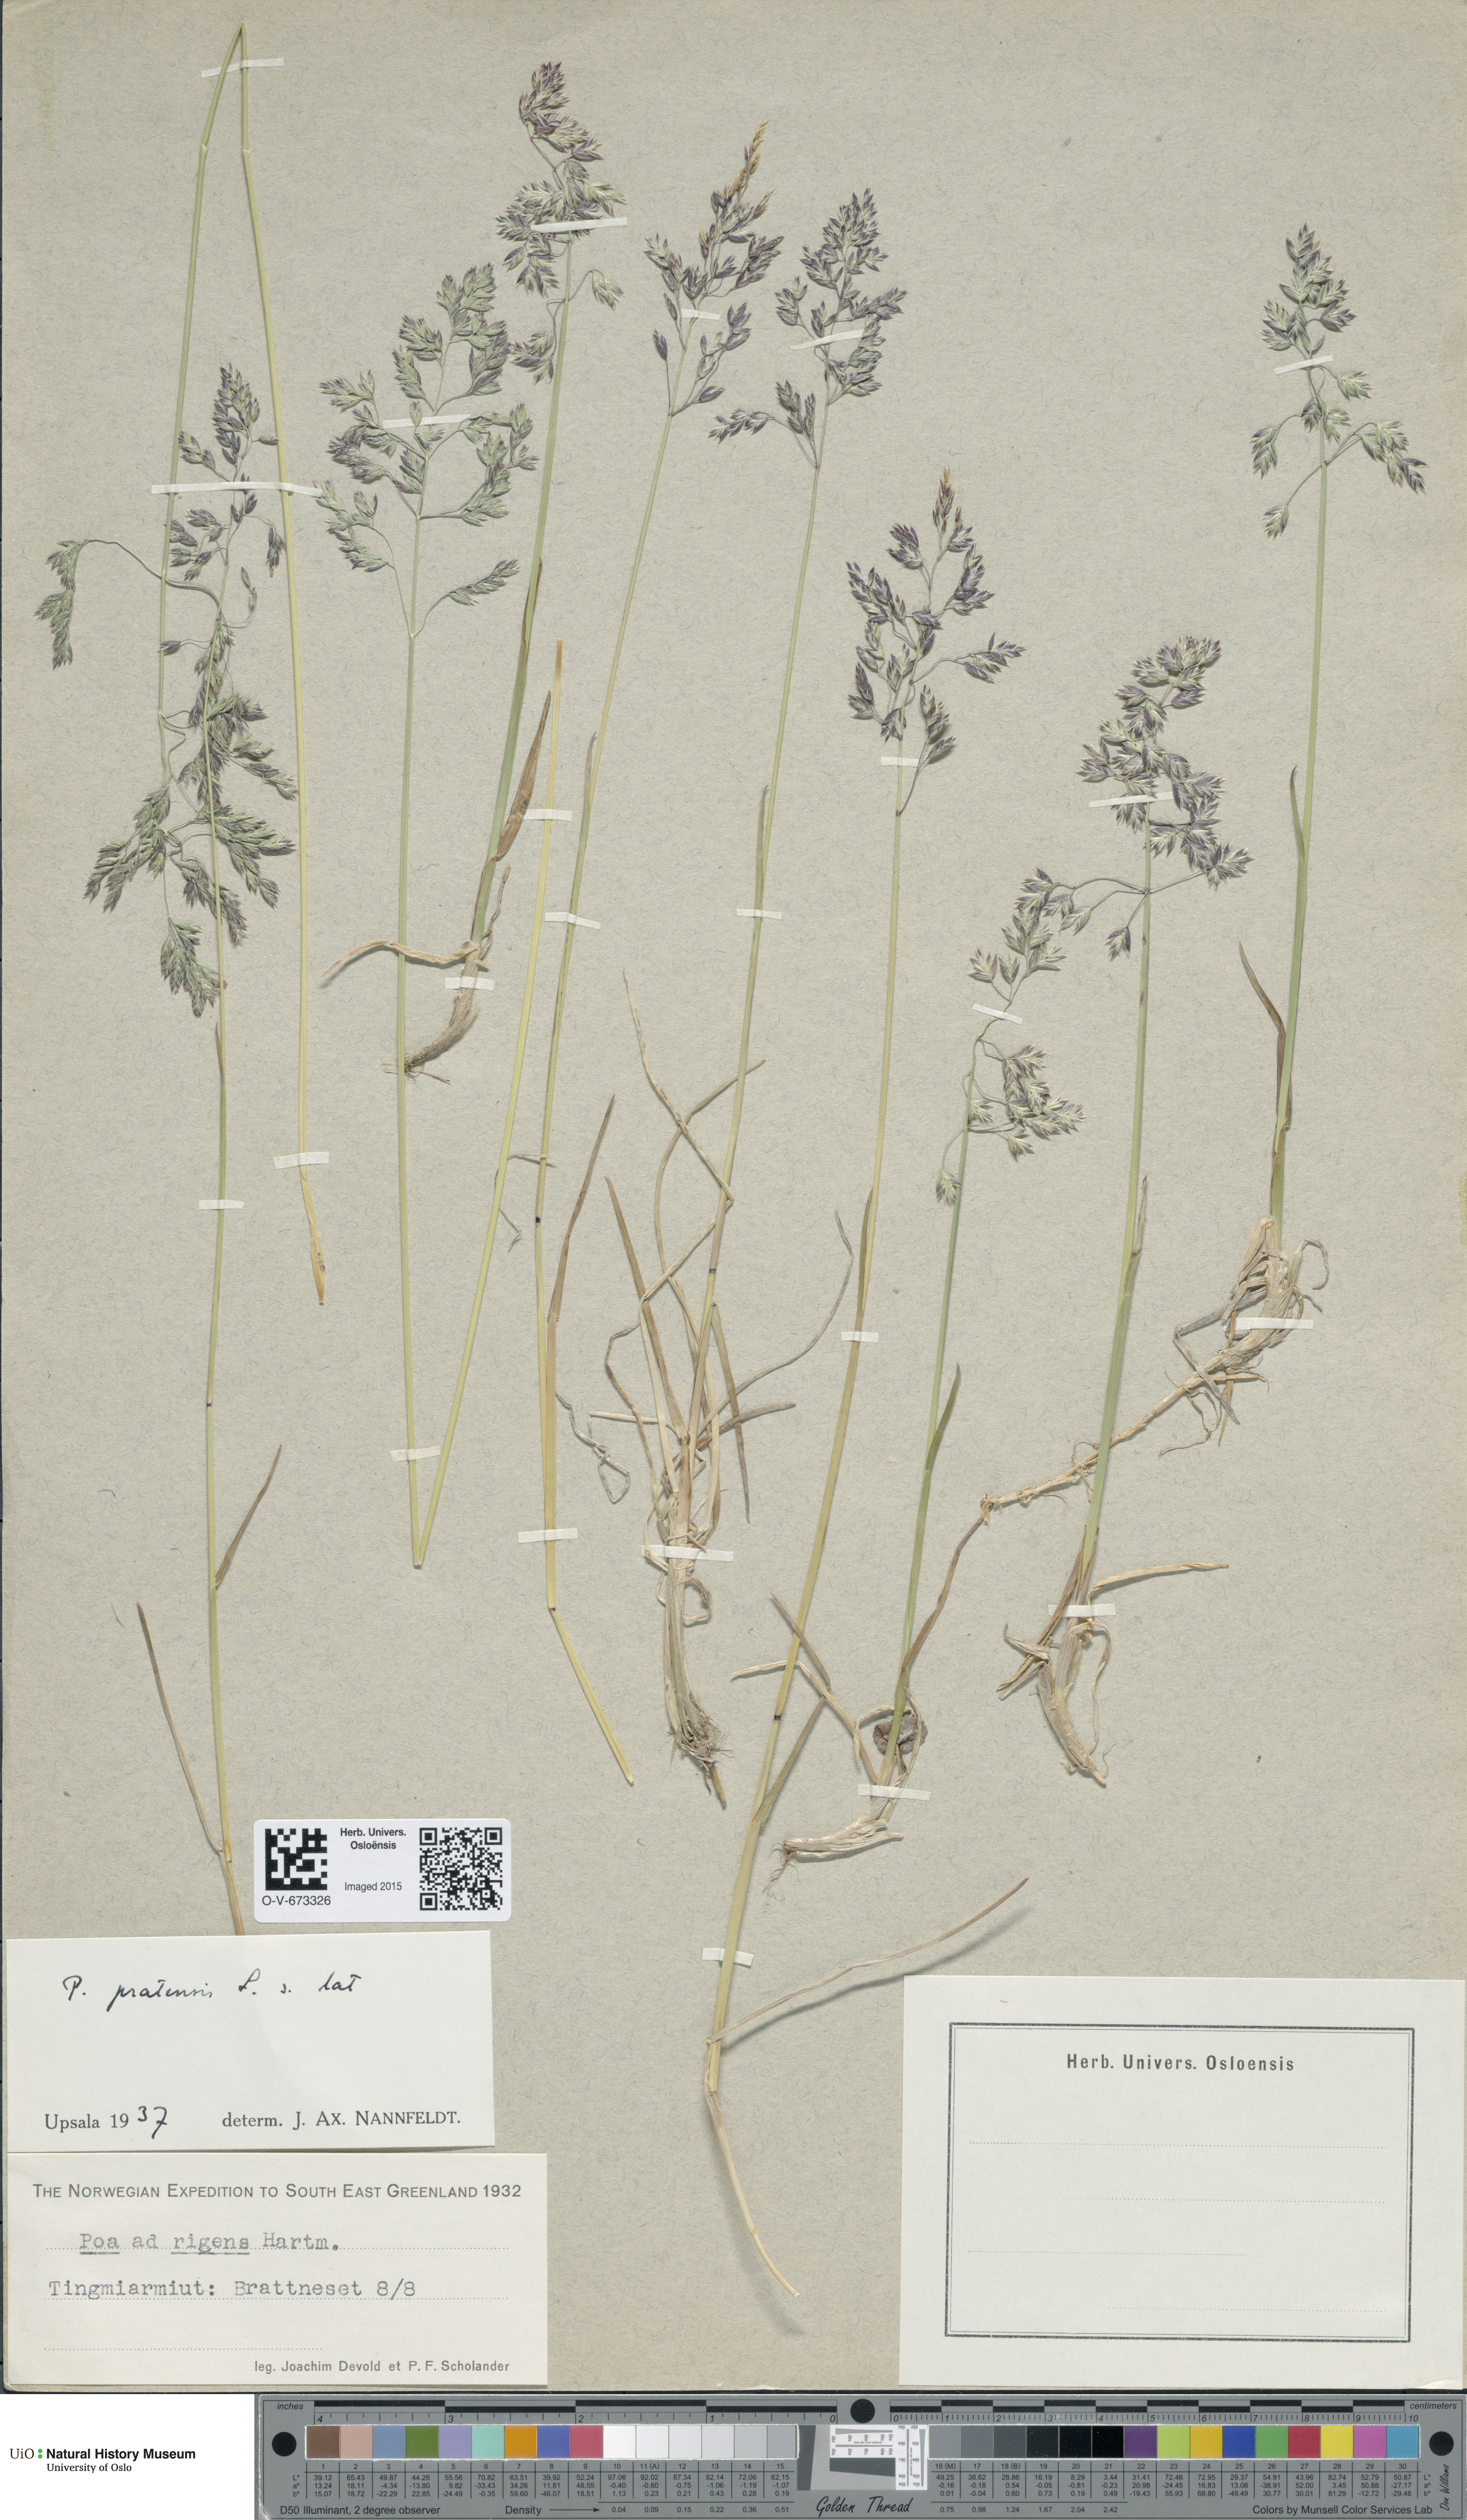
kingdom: Plantae
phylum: Tracheophyta
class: Liliopsida
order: Poales
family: Poaceae
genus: Poa
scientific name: Poa pratensis
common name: Kentucky bluegrass
